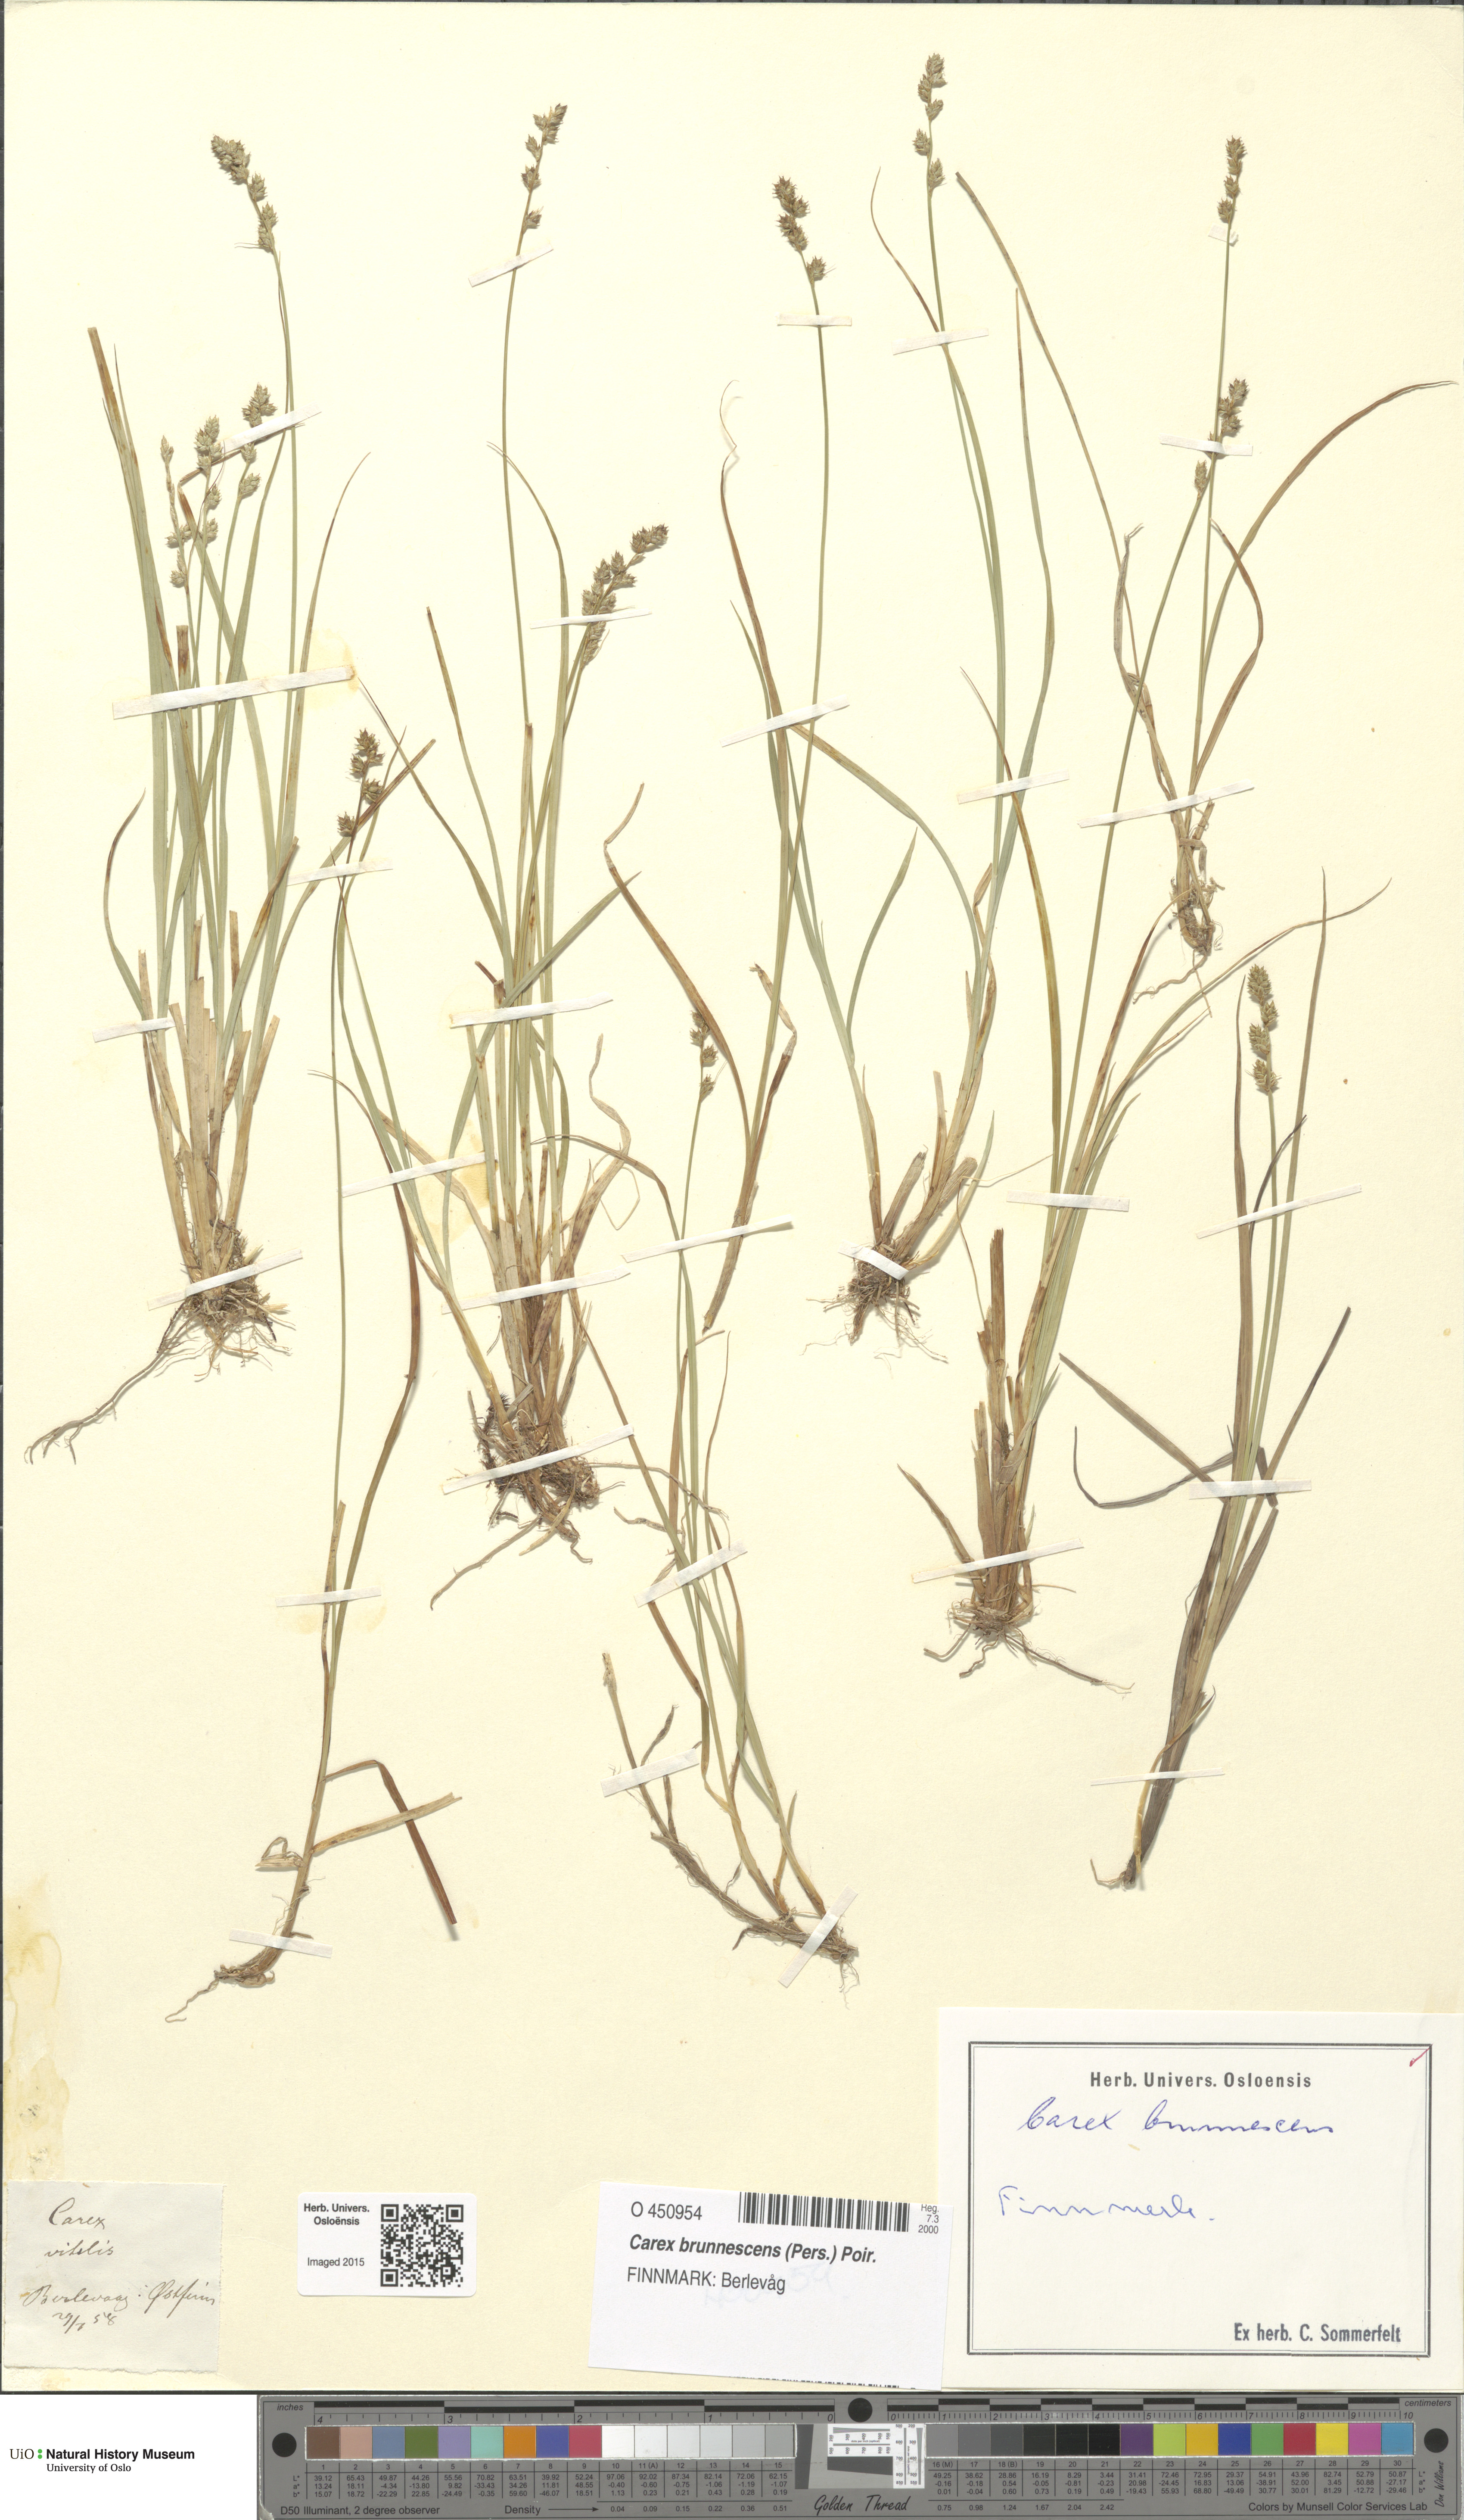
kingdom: Plantae
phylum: Tracheophyta
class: Liliopsida
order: Poales
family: Cyperaceae
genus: Carex
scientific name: Carex brunnescens
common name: Brown sedge
